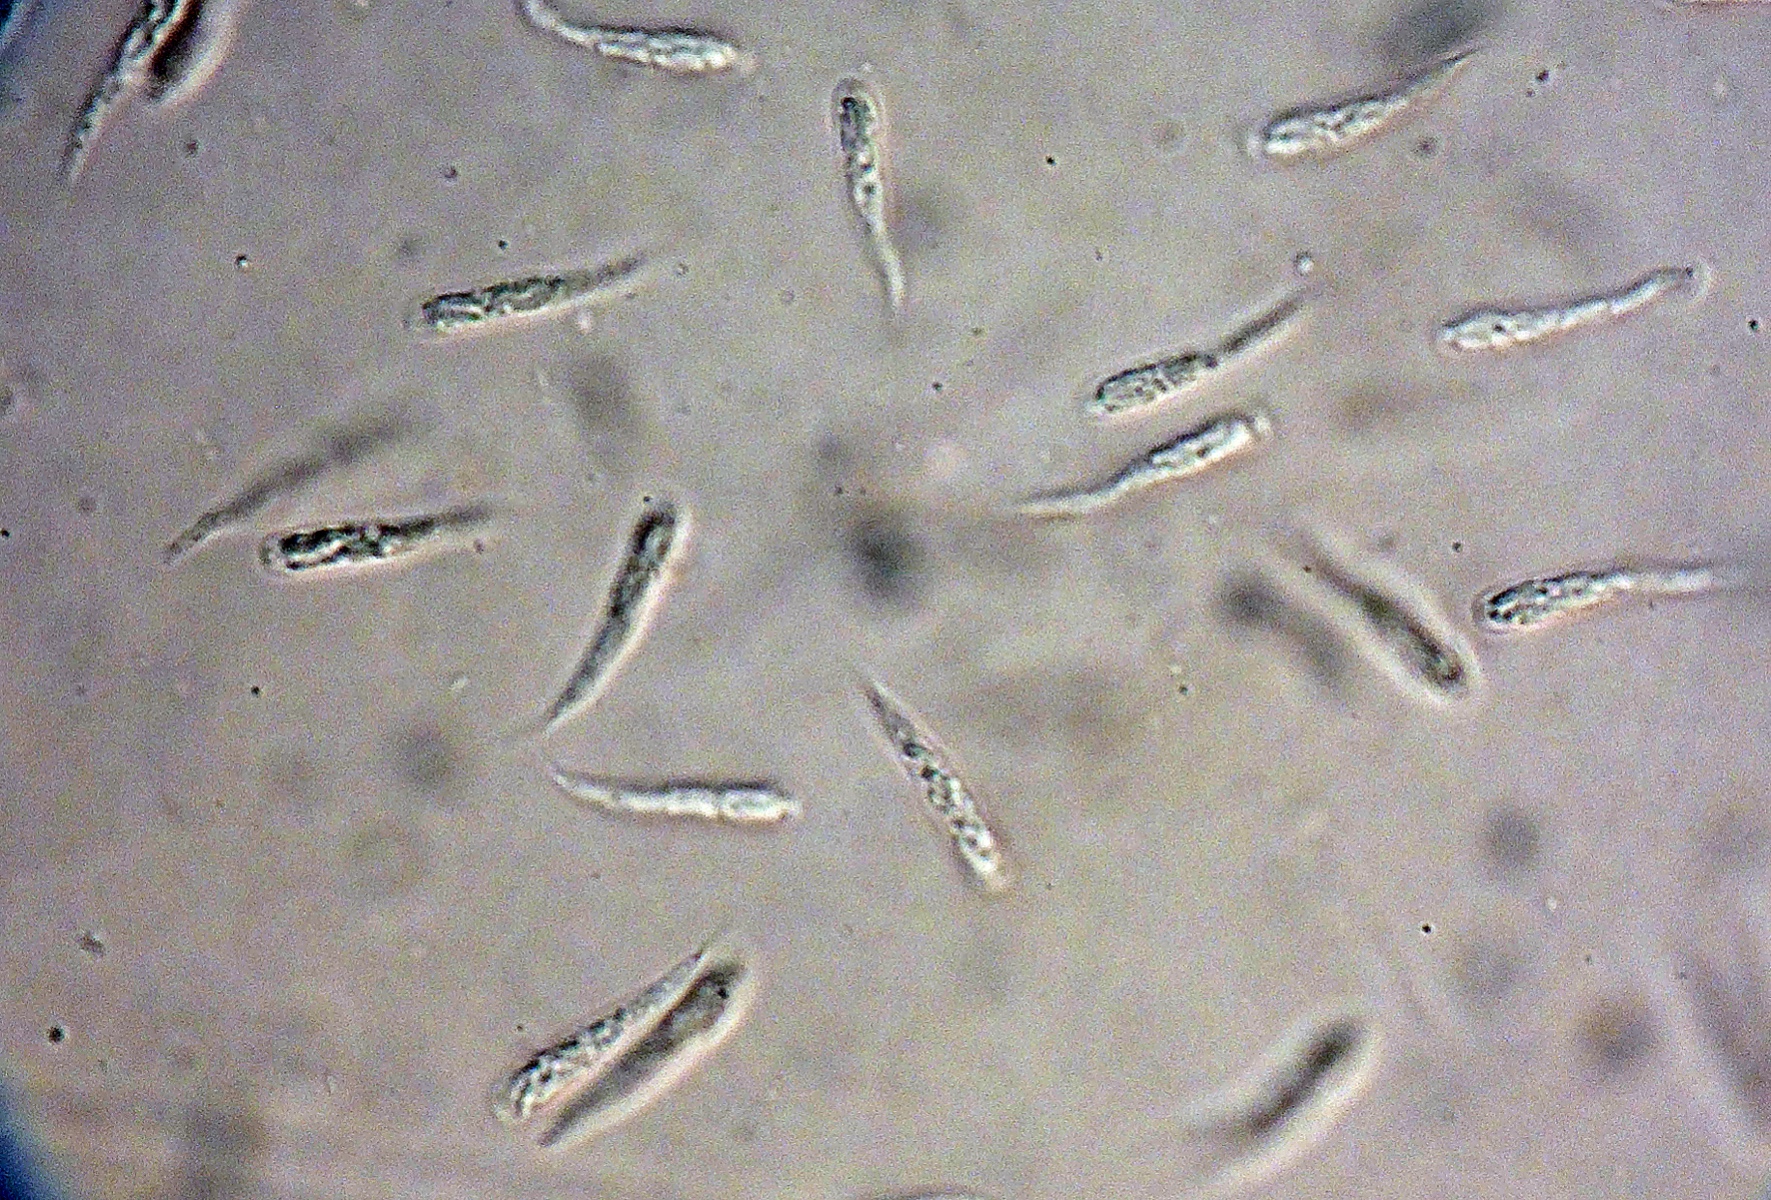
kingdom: Fungi
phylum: Ascomycota
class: Sordariomycetes
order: Calosphaeriales
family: Calosphaeriaceae
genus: Calosphaeria
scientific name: Calosphaeria parasitica
